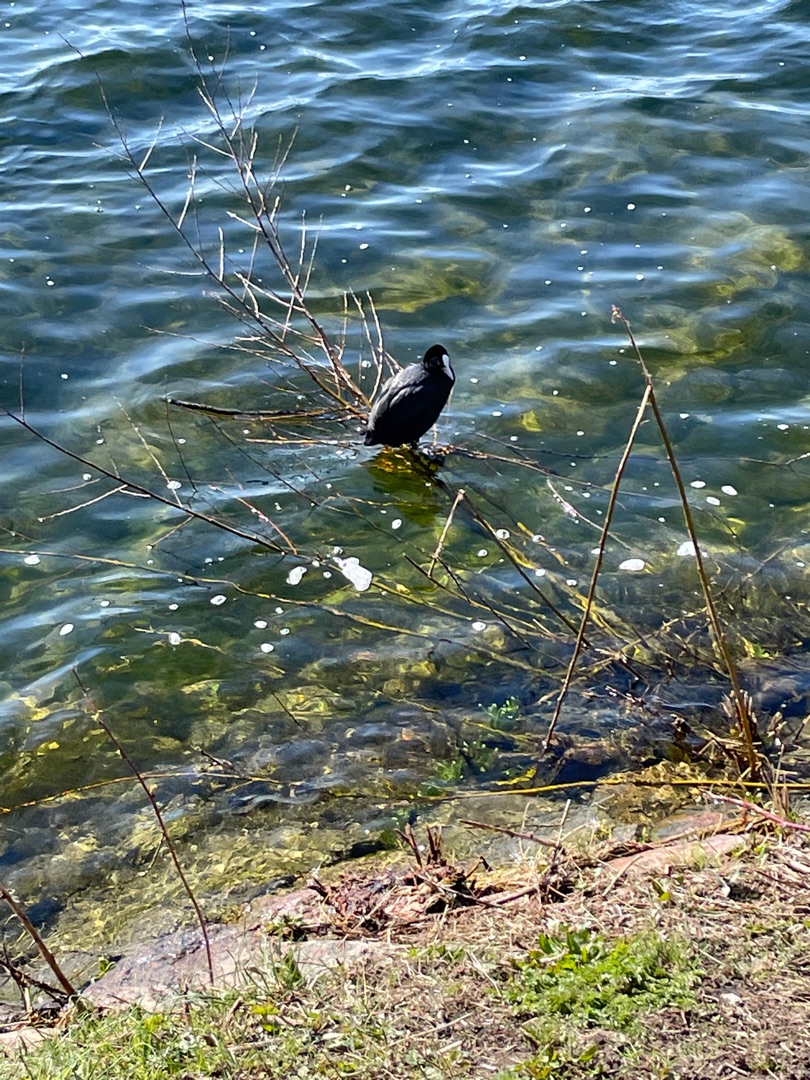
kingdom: Animalia
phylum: Chordata
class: Aves
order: Gruiformes
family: Rallidae
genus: Fulica
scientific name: Fulica atra
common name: Blishøne
